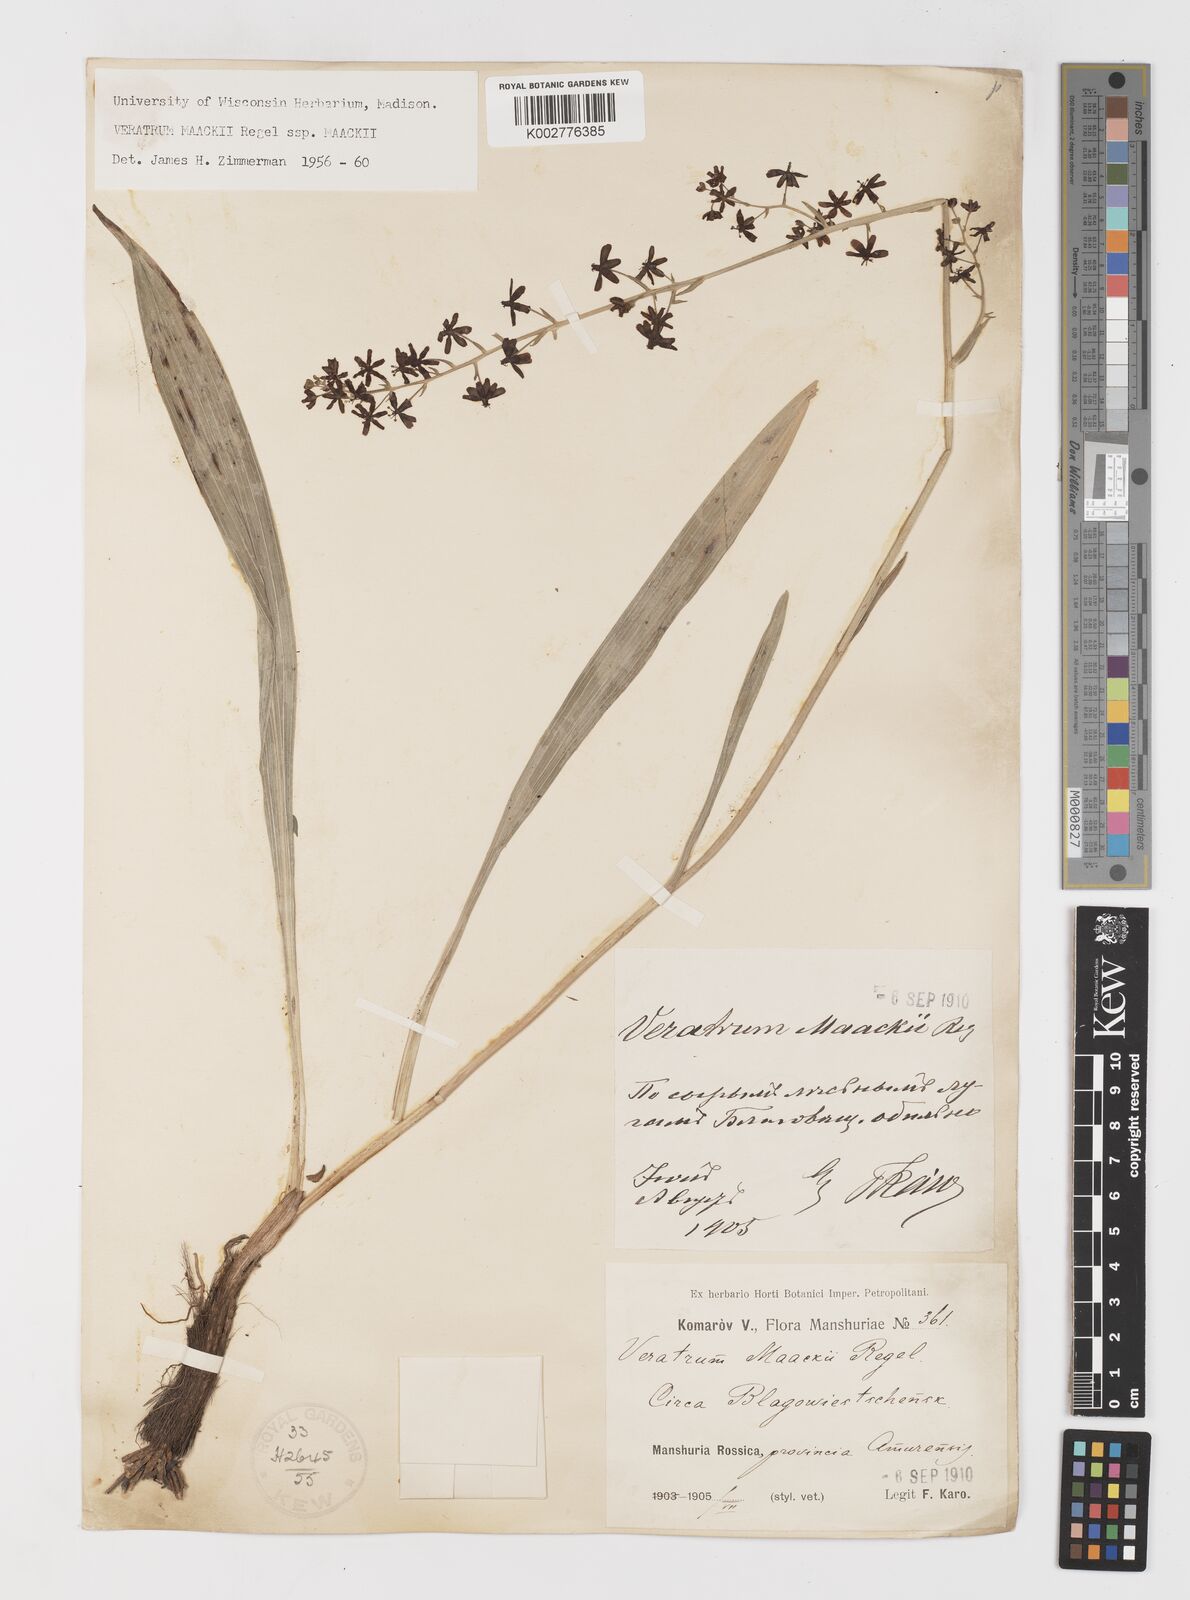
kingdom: Plantae
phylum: Tracheophyta
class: Liliopsida
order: Liliales
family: Melanthiaceae
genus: Veratrum
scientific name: Veratrum maackii
